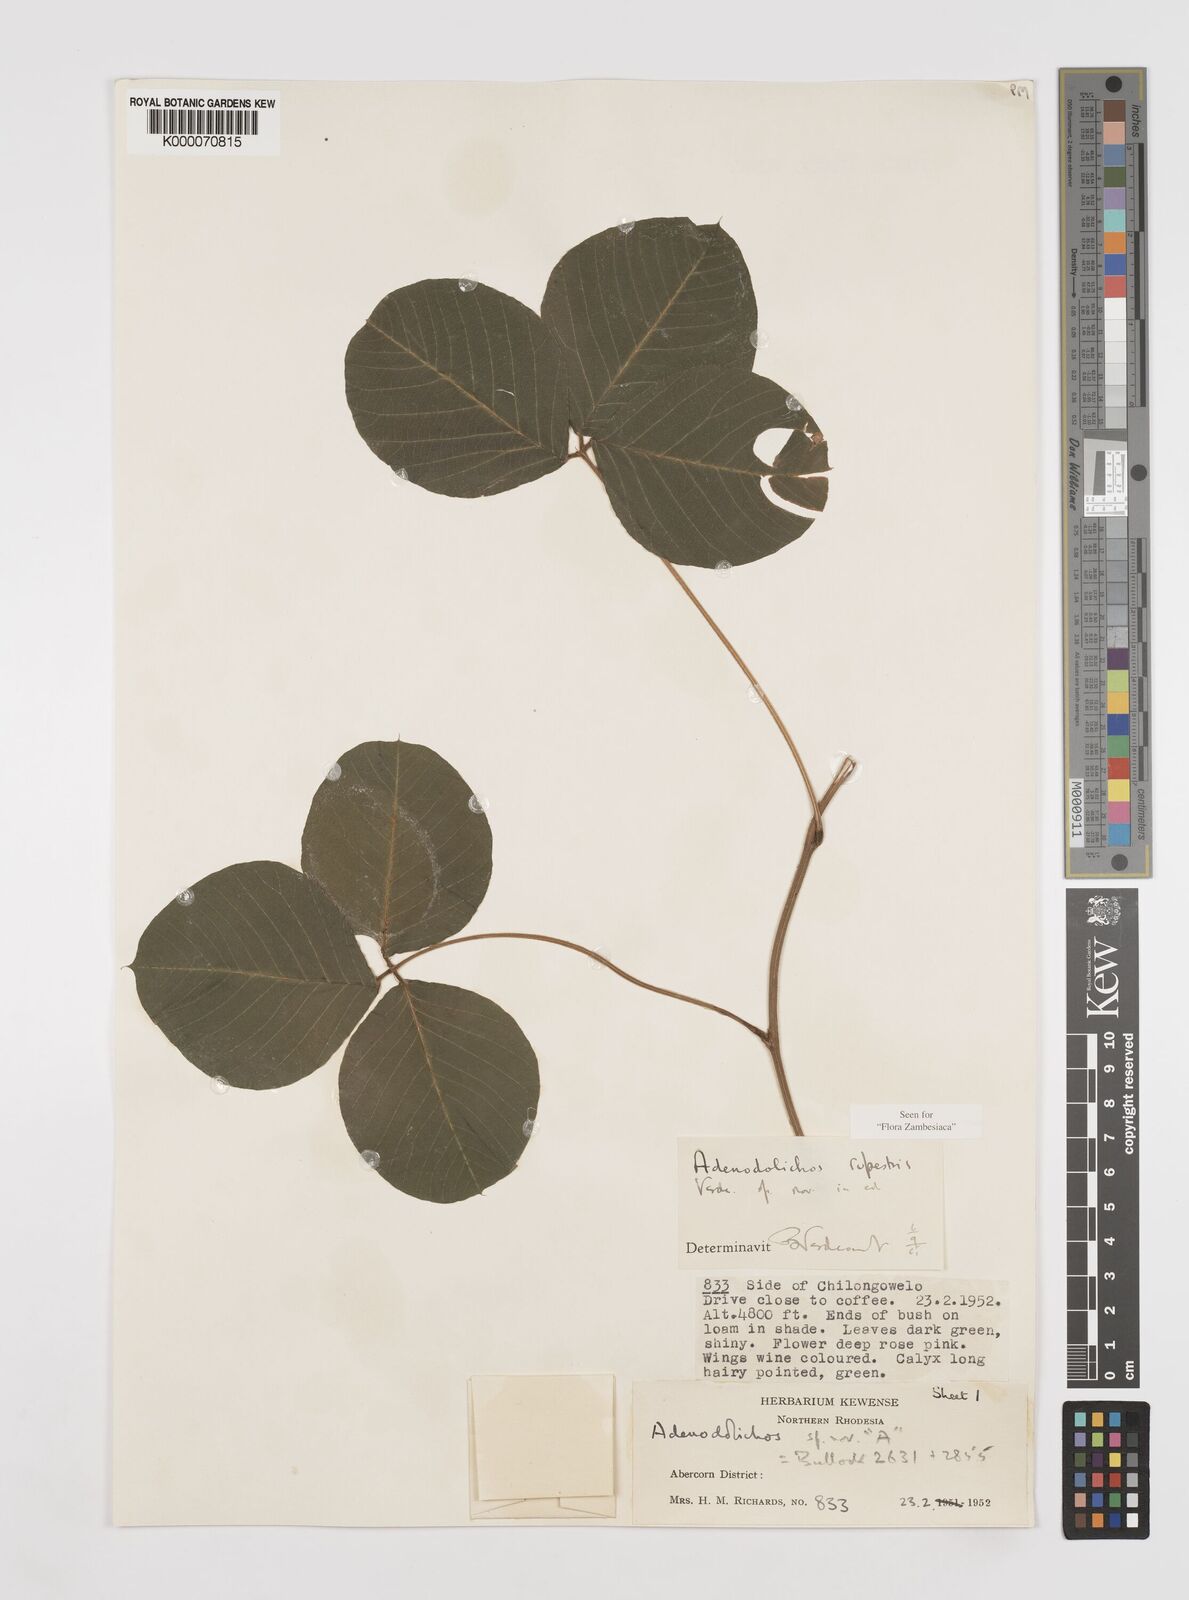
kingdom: Plantae
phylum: Tracheophyta
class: Magnoliopsida
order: Fabales
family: Fabaceae
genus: Adenodolichos
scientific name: Adenodolichos rupestris
